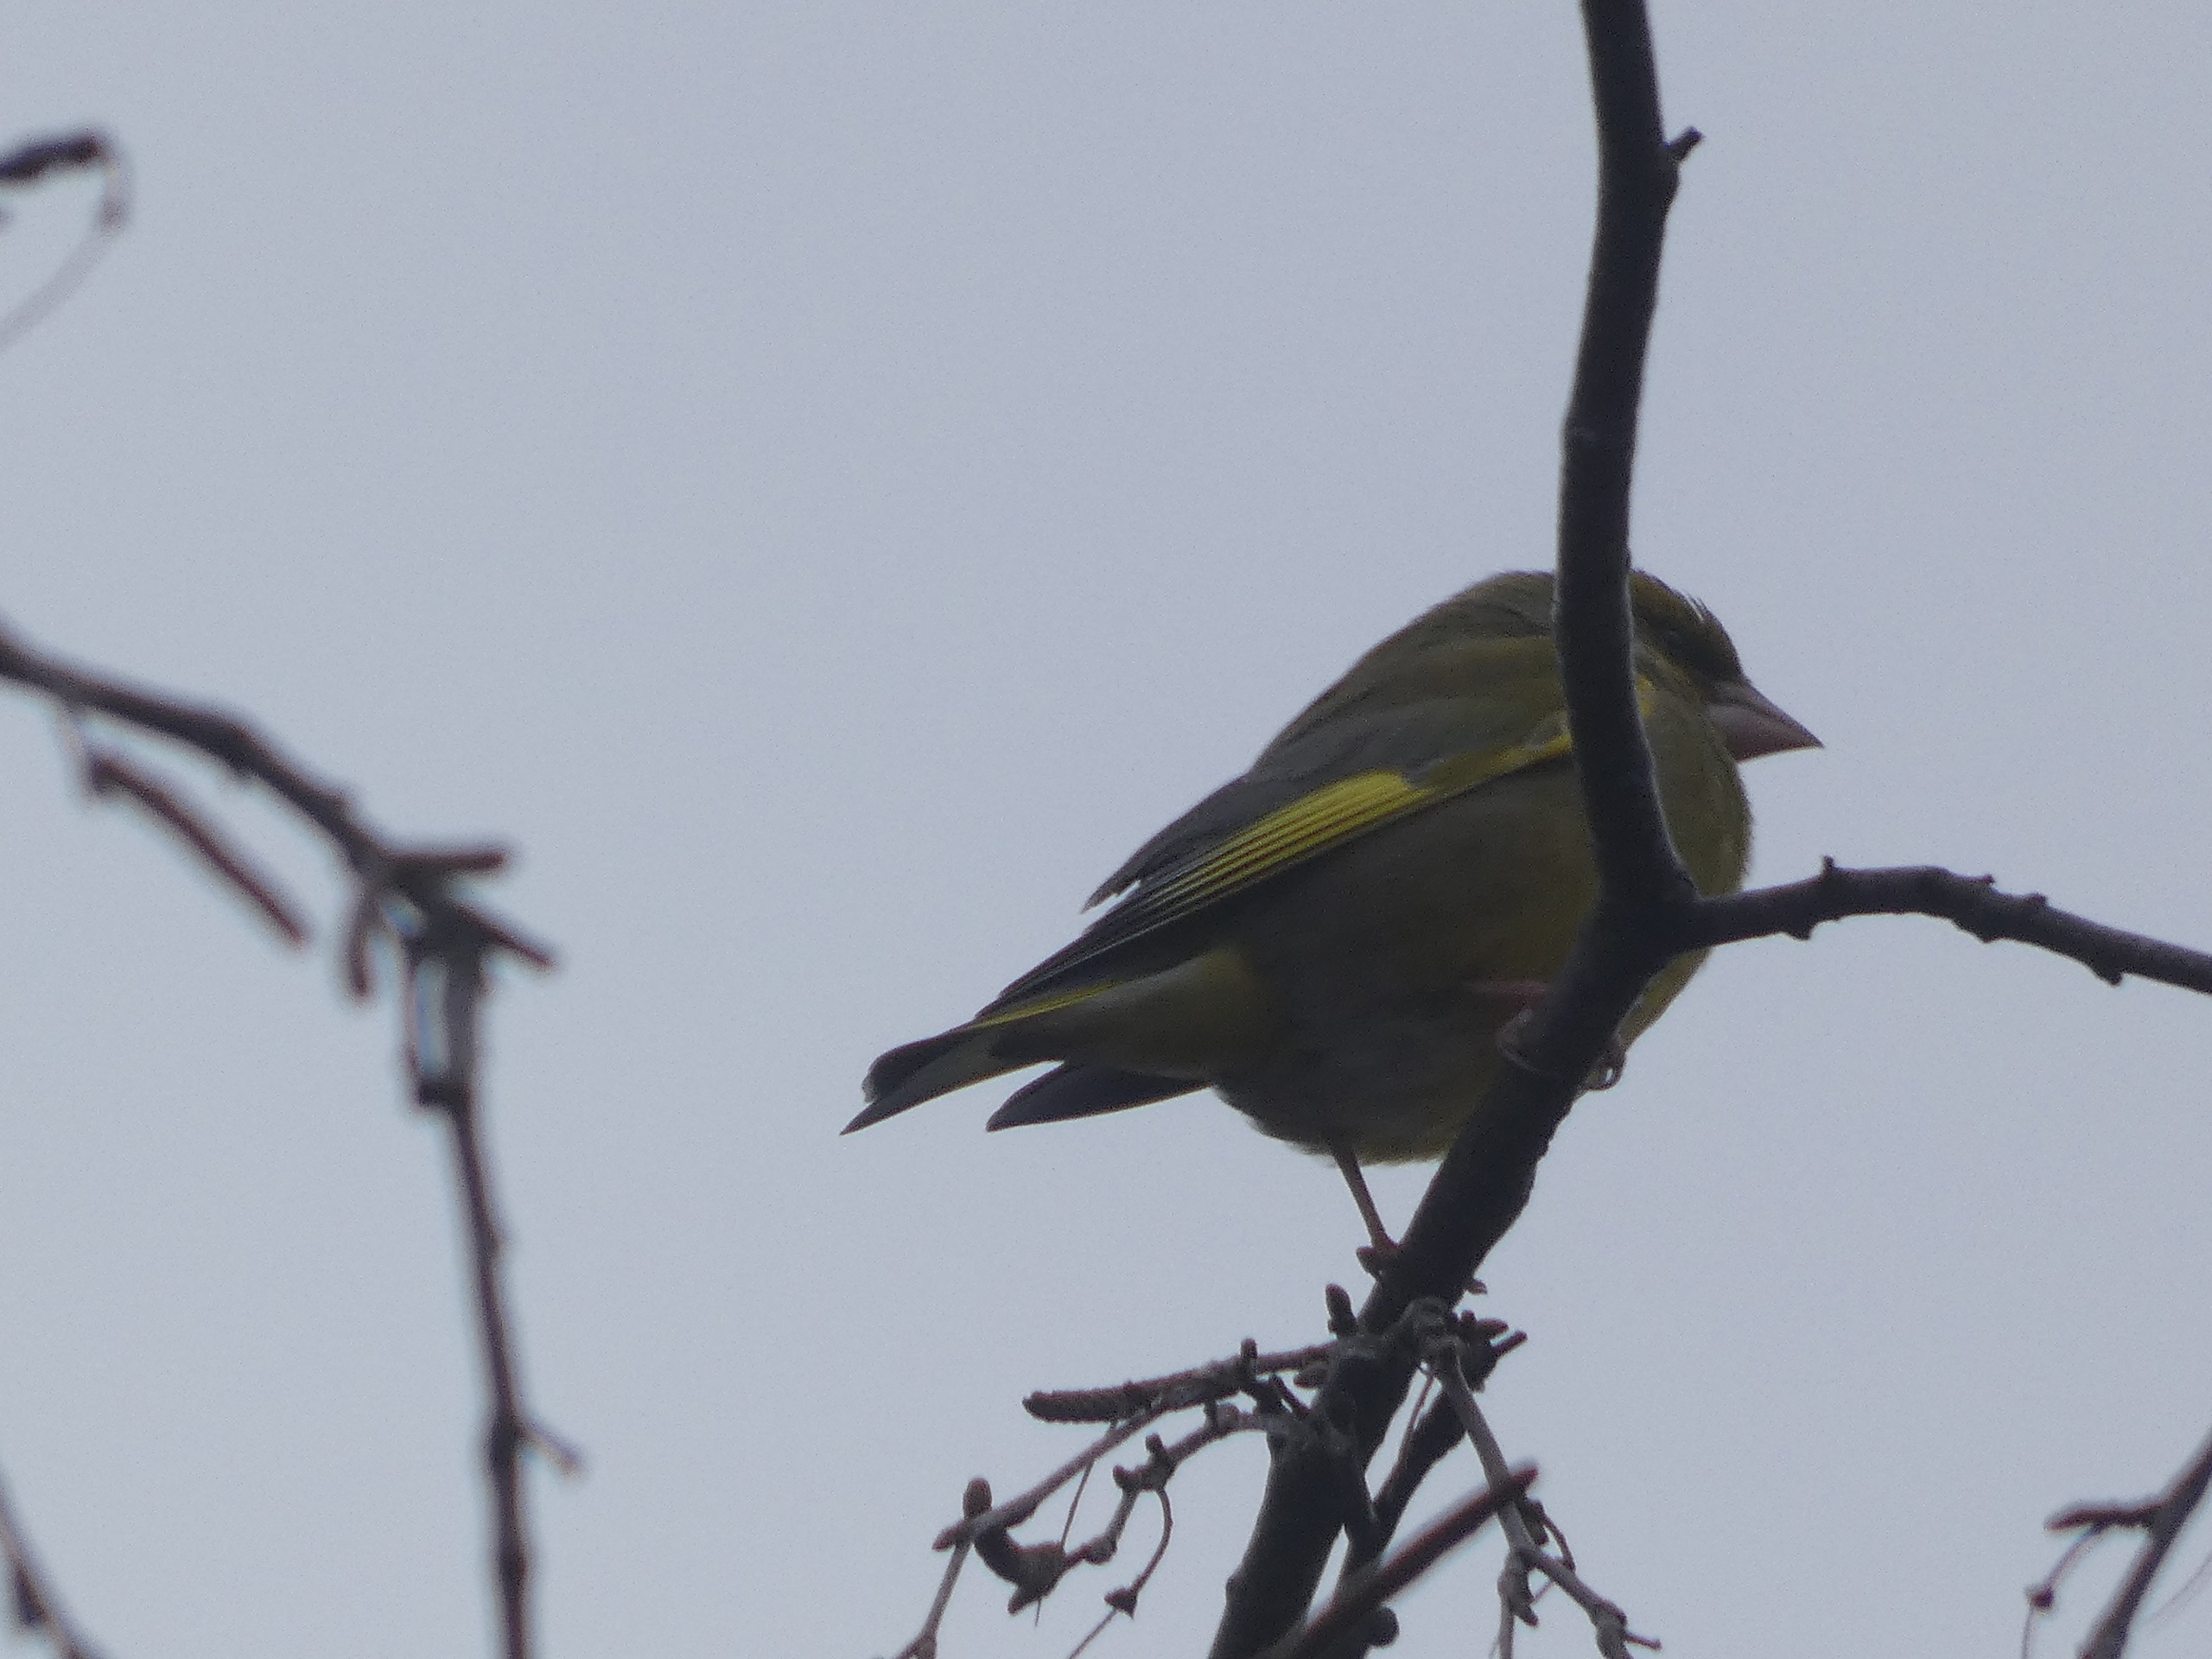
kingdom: Plantae
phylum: Tracheophyta
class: Liliopsida
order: Poales
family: Poaceae
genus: Chloris
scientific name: Chloris chloris
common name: Grønirisk
